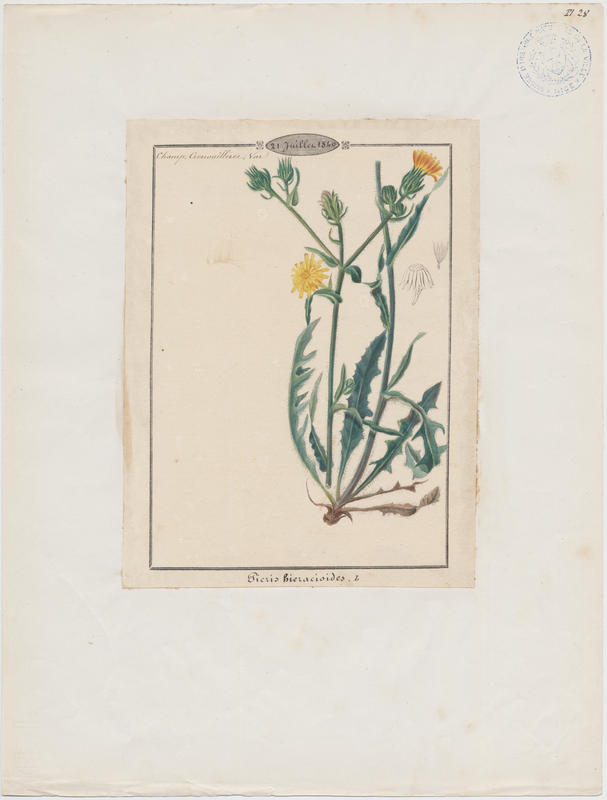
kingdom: Plantae
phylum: Tracheophyta
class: Magnoliopsida
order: Asterales
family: Asteraceae
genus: Picris
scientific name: Picris hieracioides
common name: Hawkweed oxtongue
